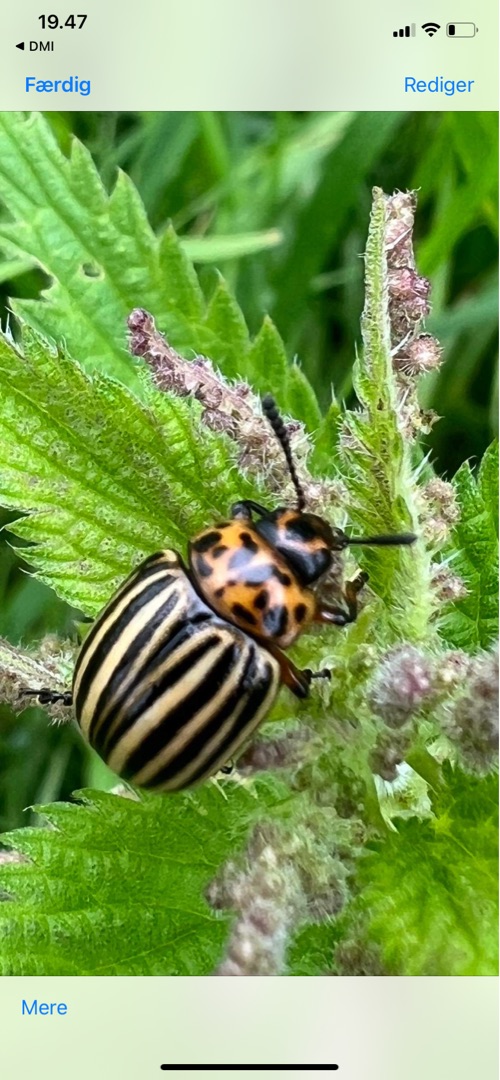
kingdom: Animalia
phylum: Arthropoda
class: Insecta
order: Coleoptera
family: Chrysomelidae
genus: Leptinotarsa
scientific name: Leptinotarsa decemlineata
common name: Coloradobille
